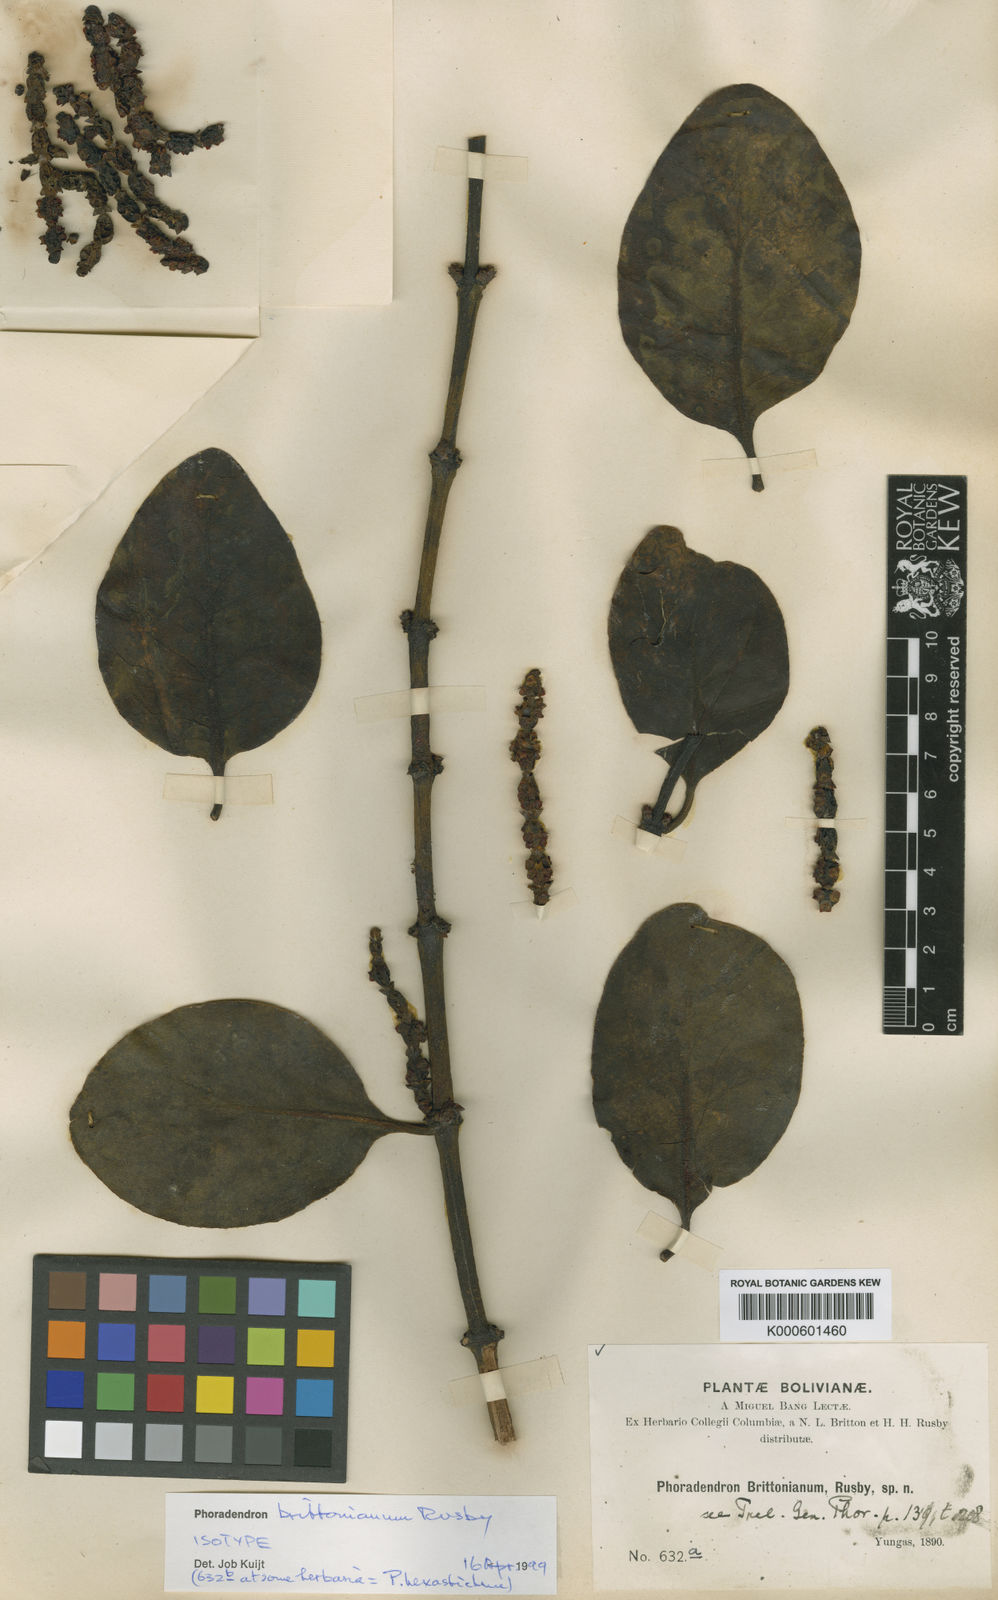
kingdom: Plantae
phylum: Tracheophyta
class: Magnoliopsida
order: Santalales
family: Viscaceae
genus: Phoradendron
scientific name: Phoradendron brittonianum
